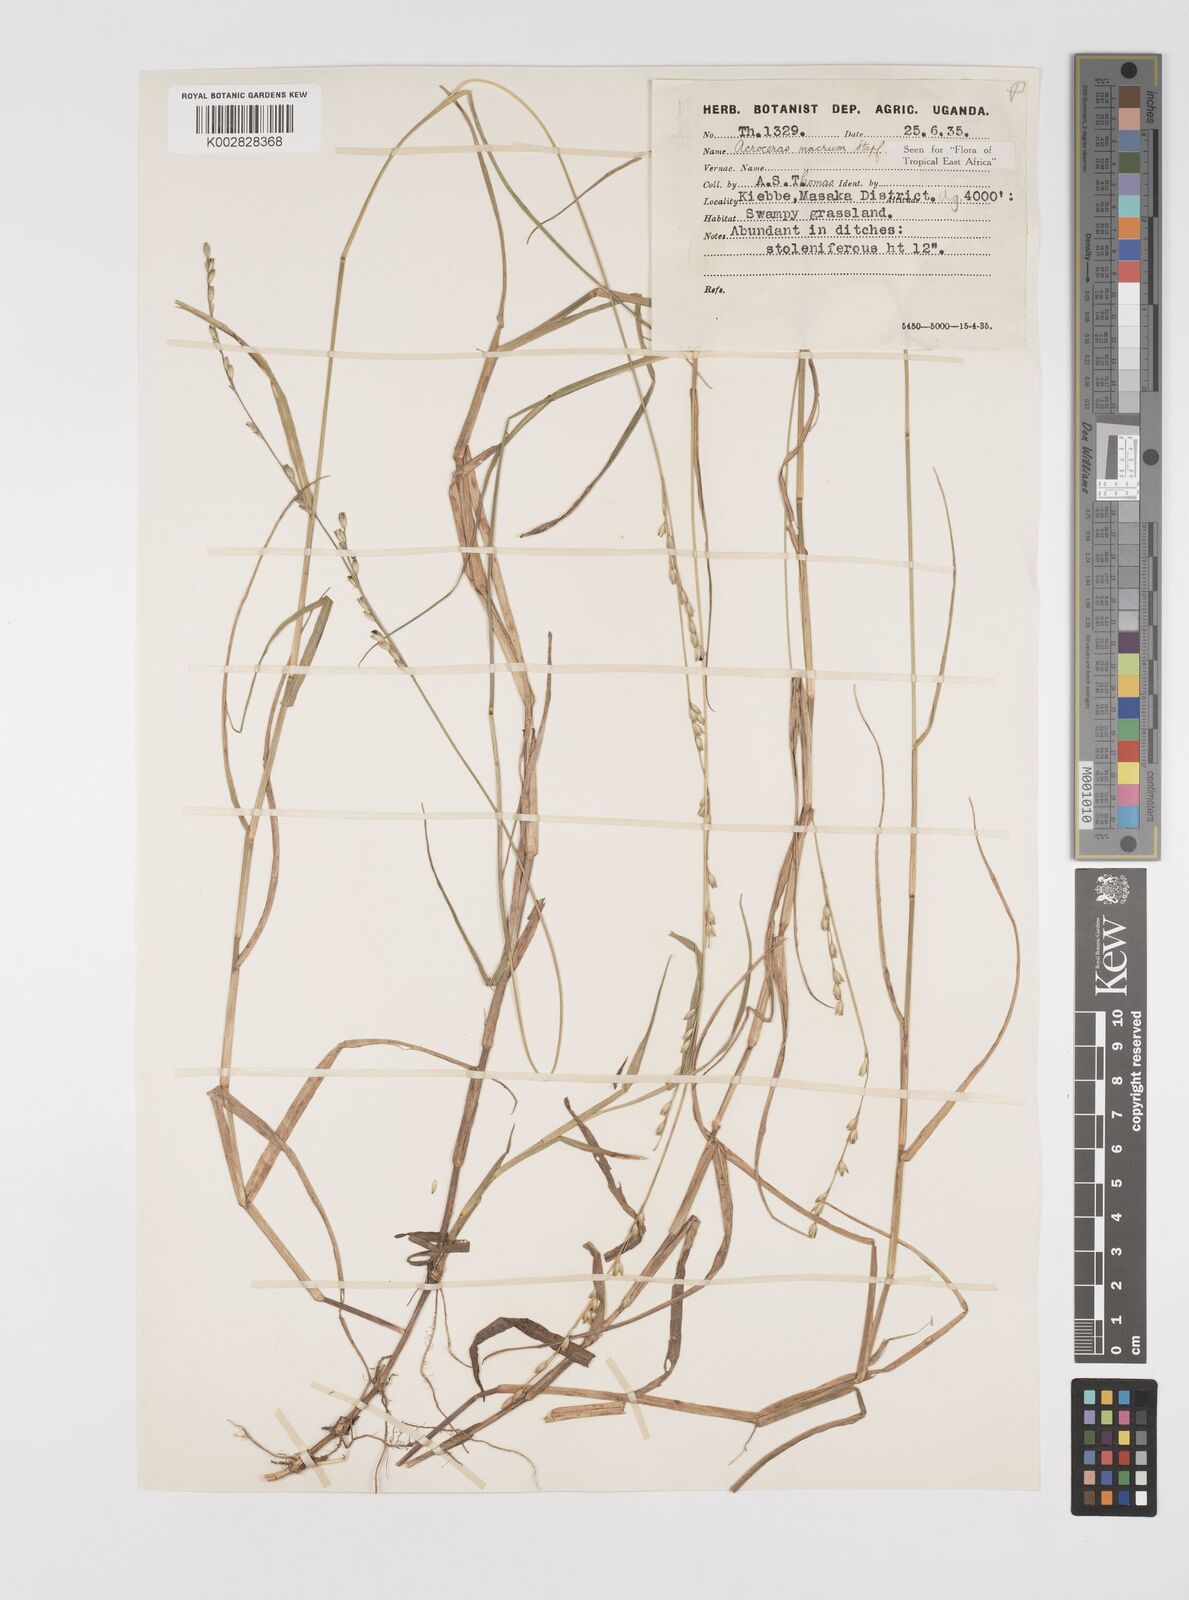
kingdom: Plantae
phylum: Tracheophyta
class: Liliopsida
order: Poales
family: Poaceae
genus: Acroceras
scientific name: Acroceras macrum
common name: Nyl grass
